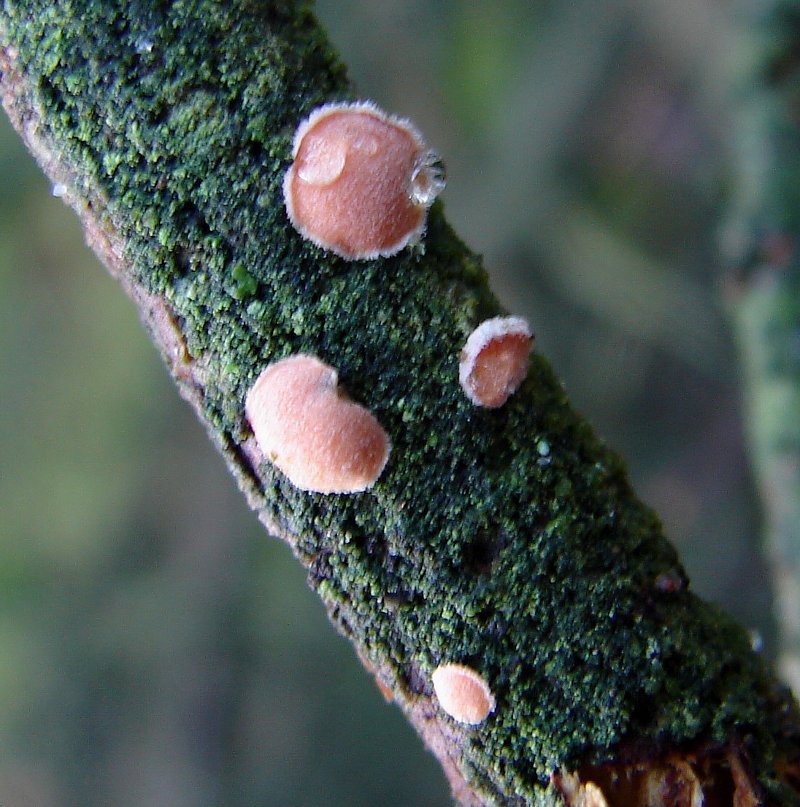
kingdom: Fungi
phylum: Basidiomycota
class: Agaricomycetes
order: Russulales
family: Stereaceae
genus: Aleurodiscus
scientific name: Aleurodiscus amorphus
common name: orange skiveskorpe
